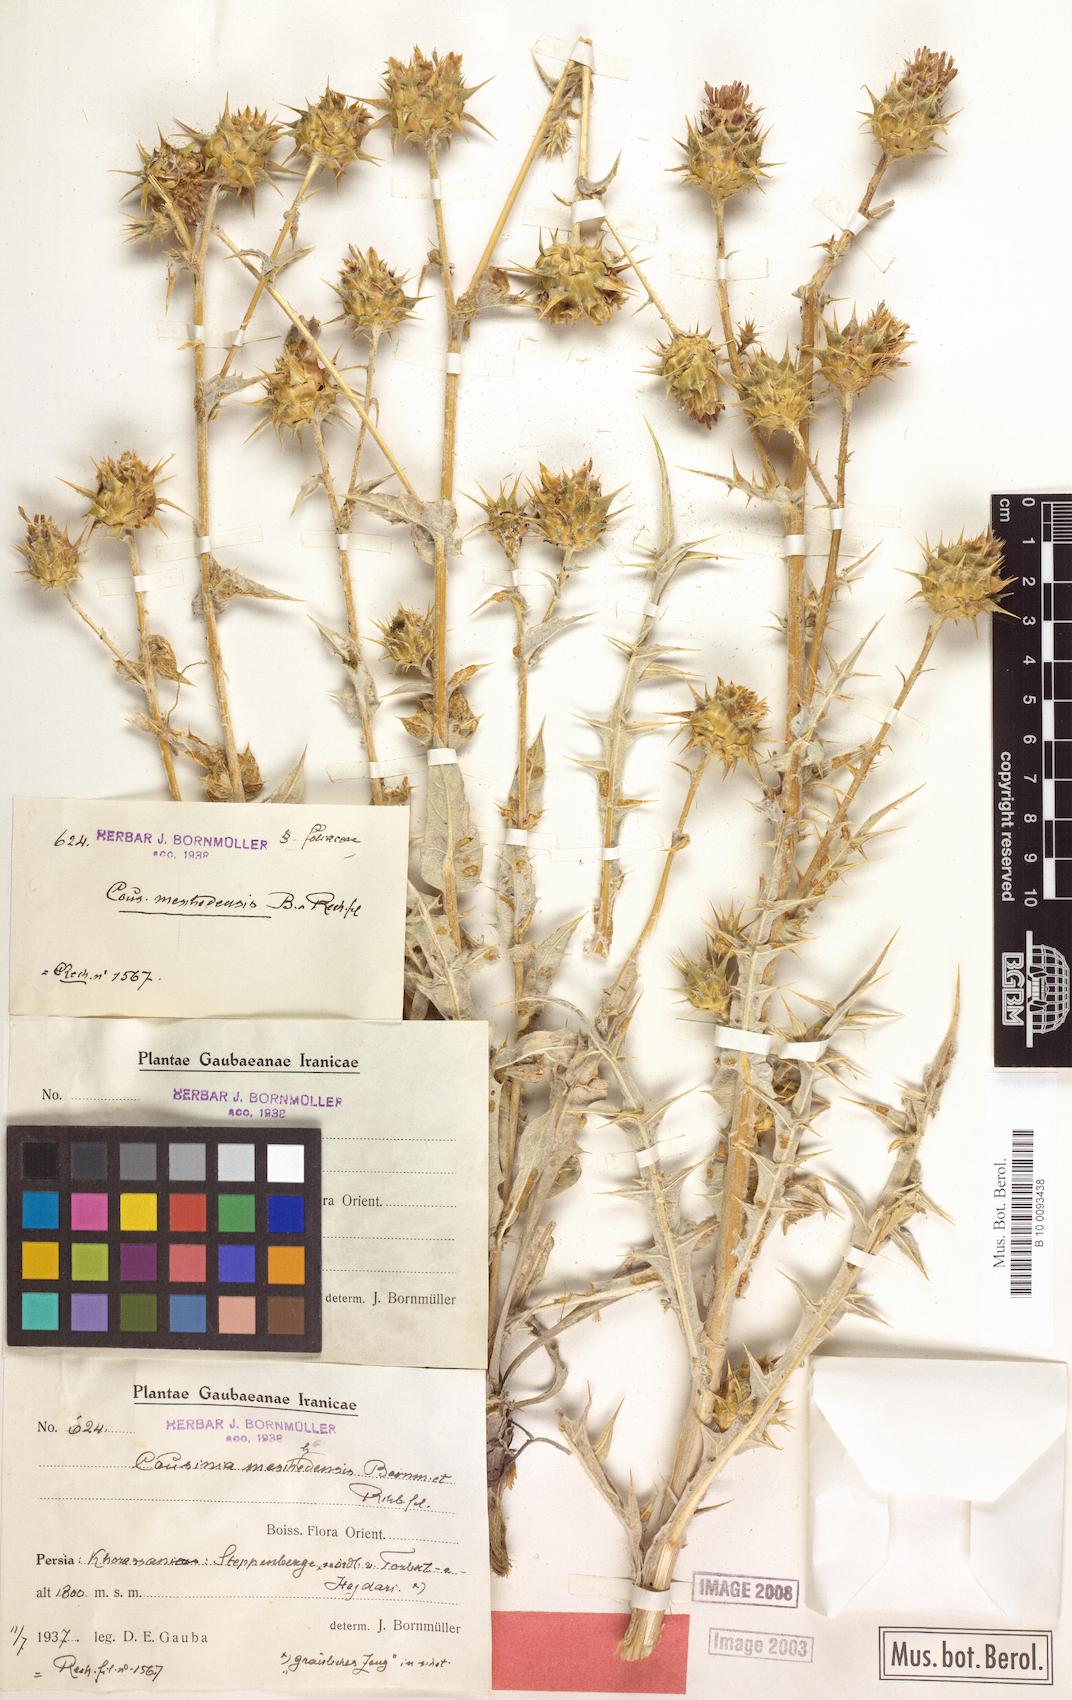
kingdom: Plantae
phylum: Tracheophyta
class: Magnoliopsida
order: Asterales
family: Asteraceae
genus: Cousinia
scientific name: Cousinia meshhedensis
